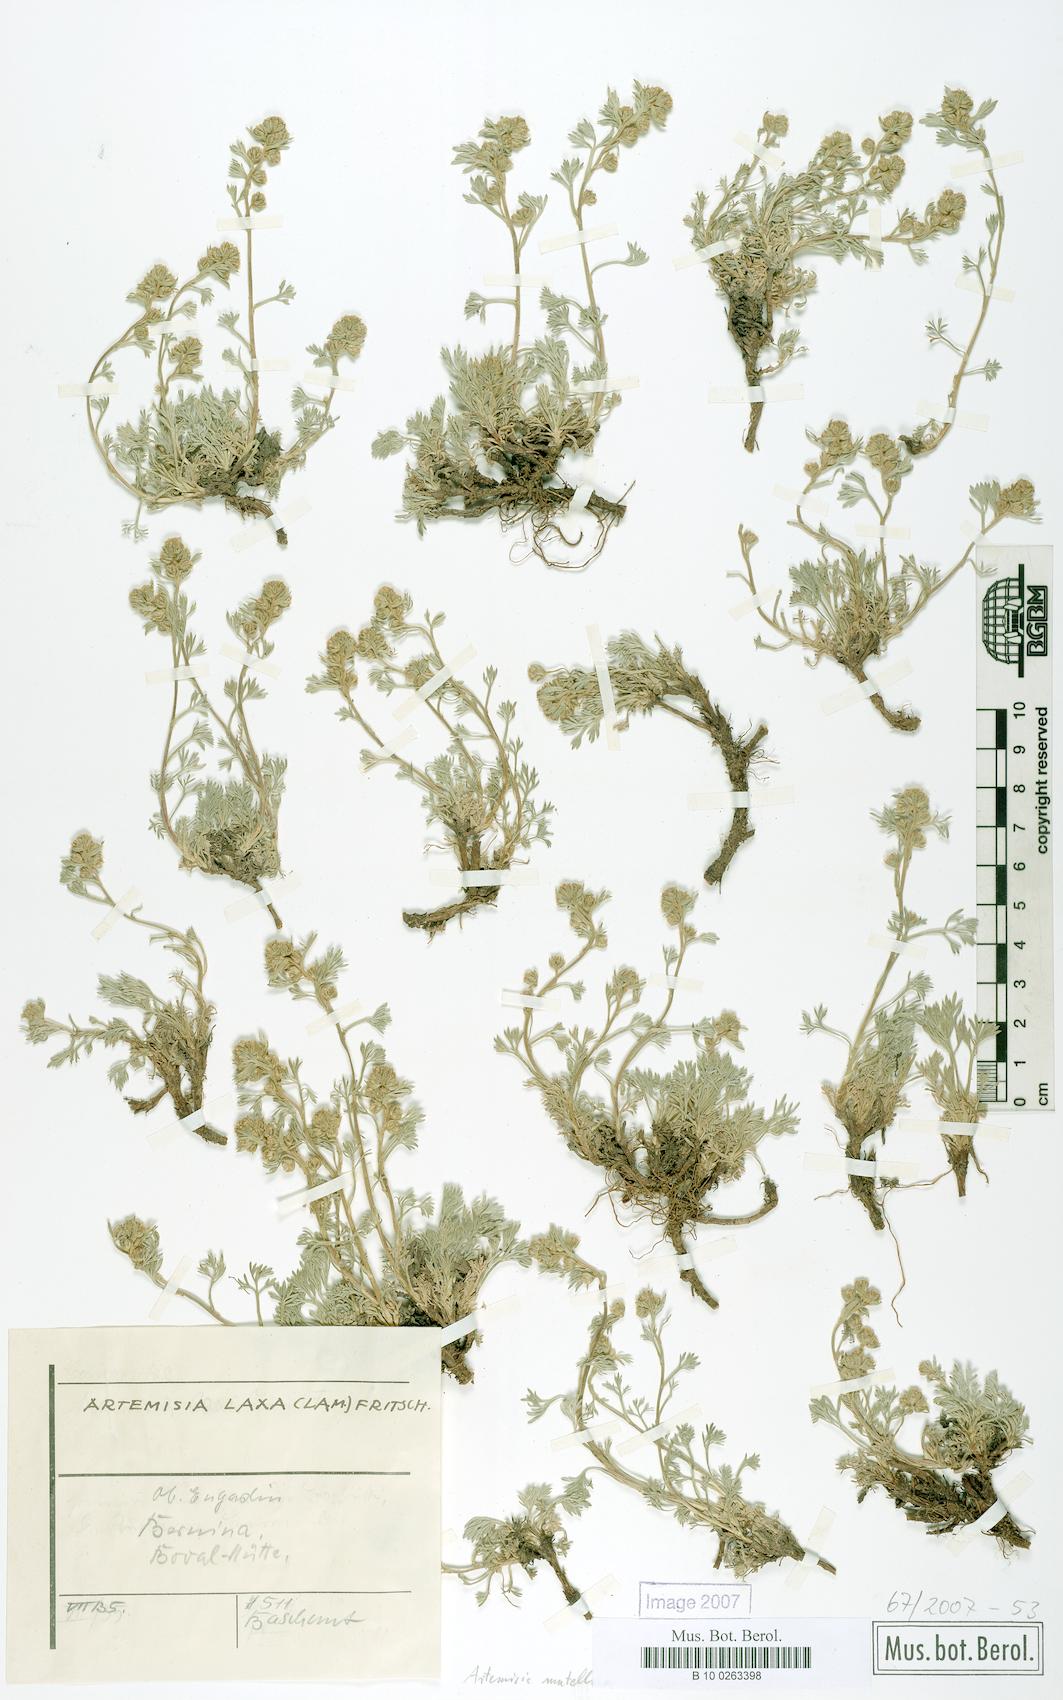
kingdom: Plantae
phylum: Tracheophyta
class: Magnoliopsida
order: Asterales
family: Asteraceae
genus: Artemisia
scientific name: Artemisia mutellina
